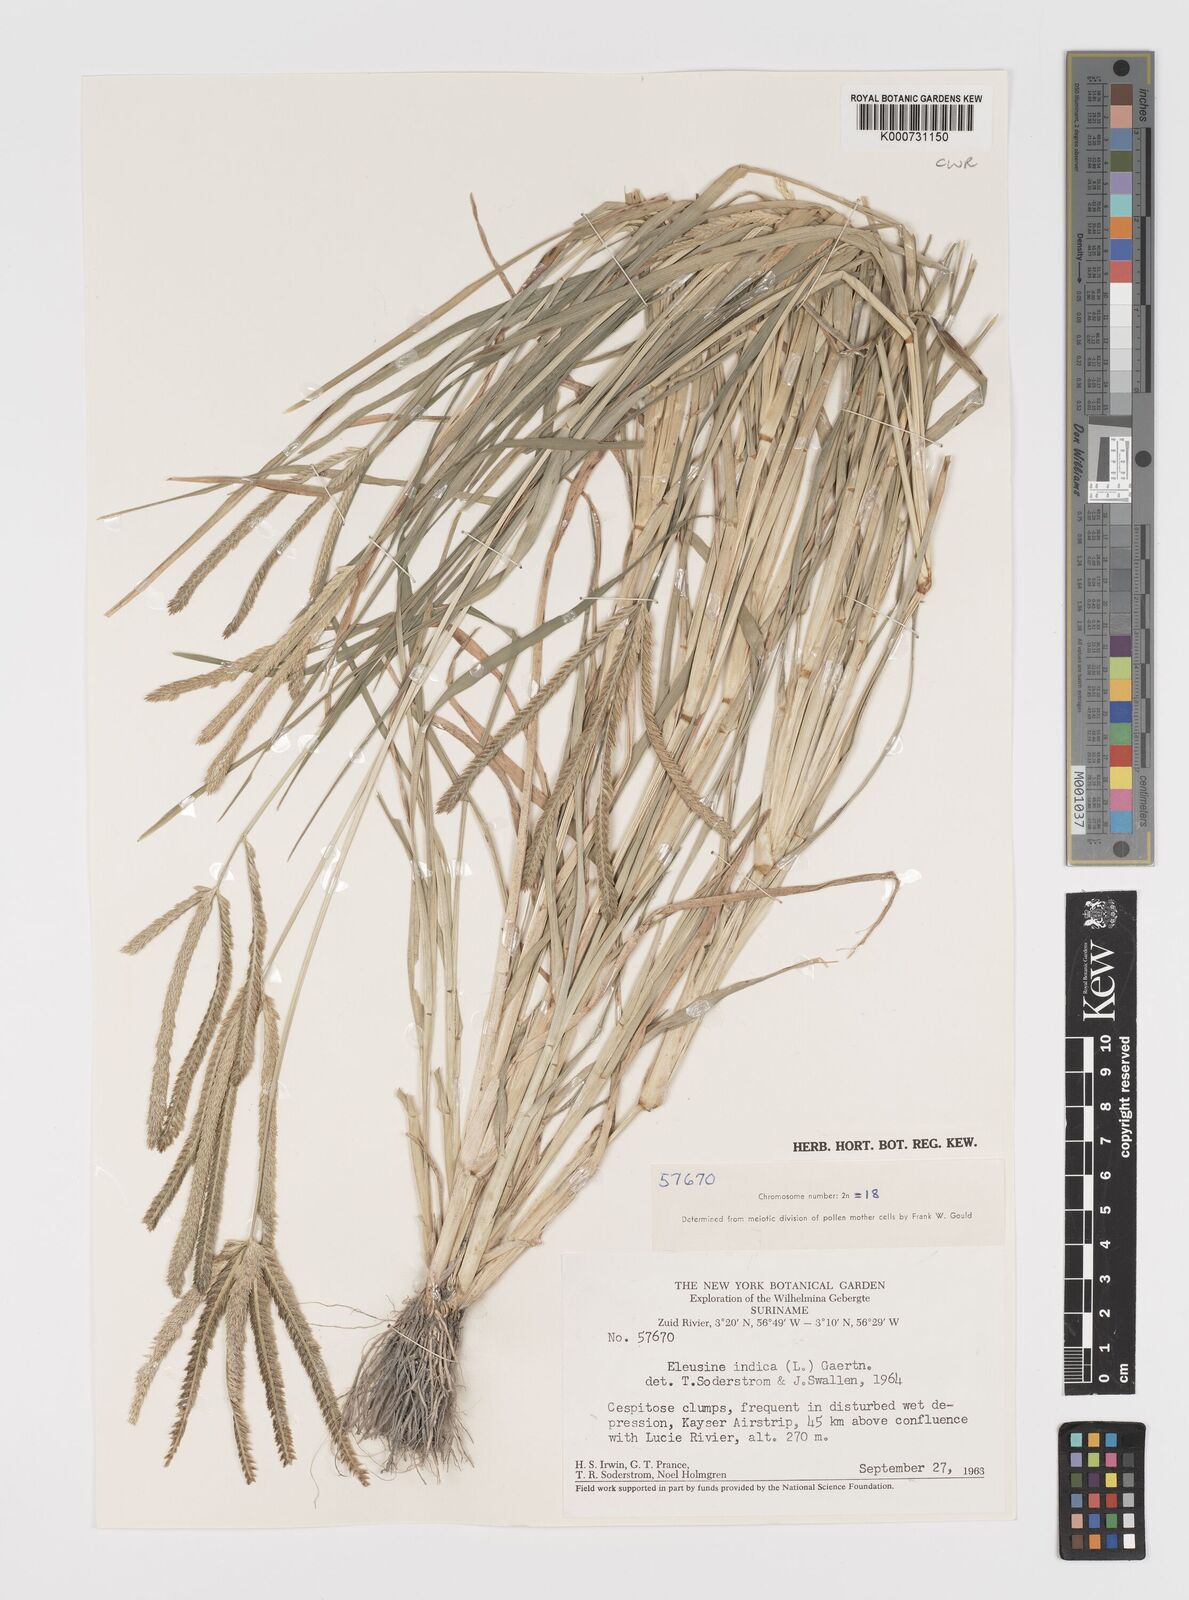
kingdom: Plantae
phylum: Tracheophyta
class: Liliopsida
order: Poales
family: Poaceae
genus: Eleusine
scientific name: Eleusine indica
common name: Yard-grass
